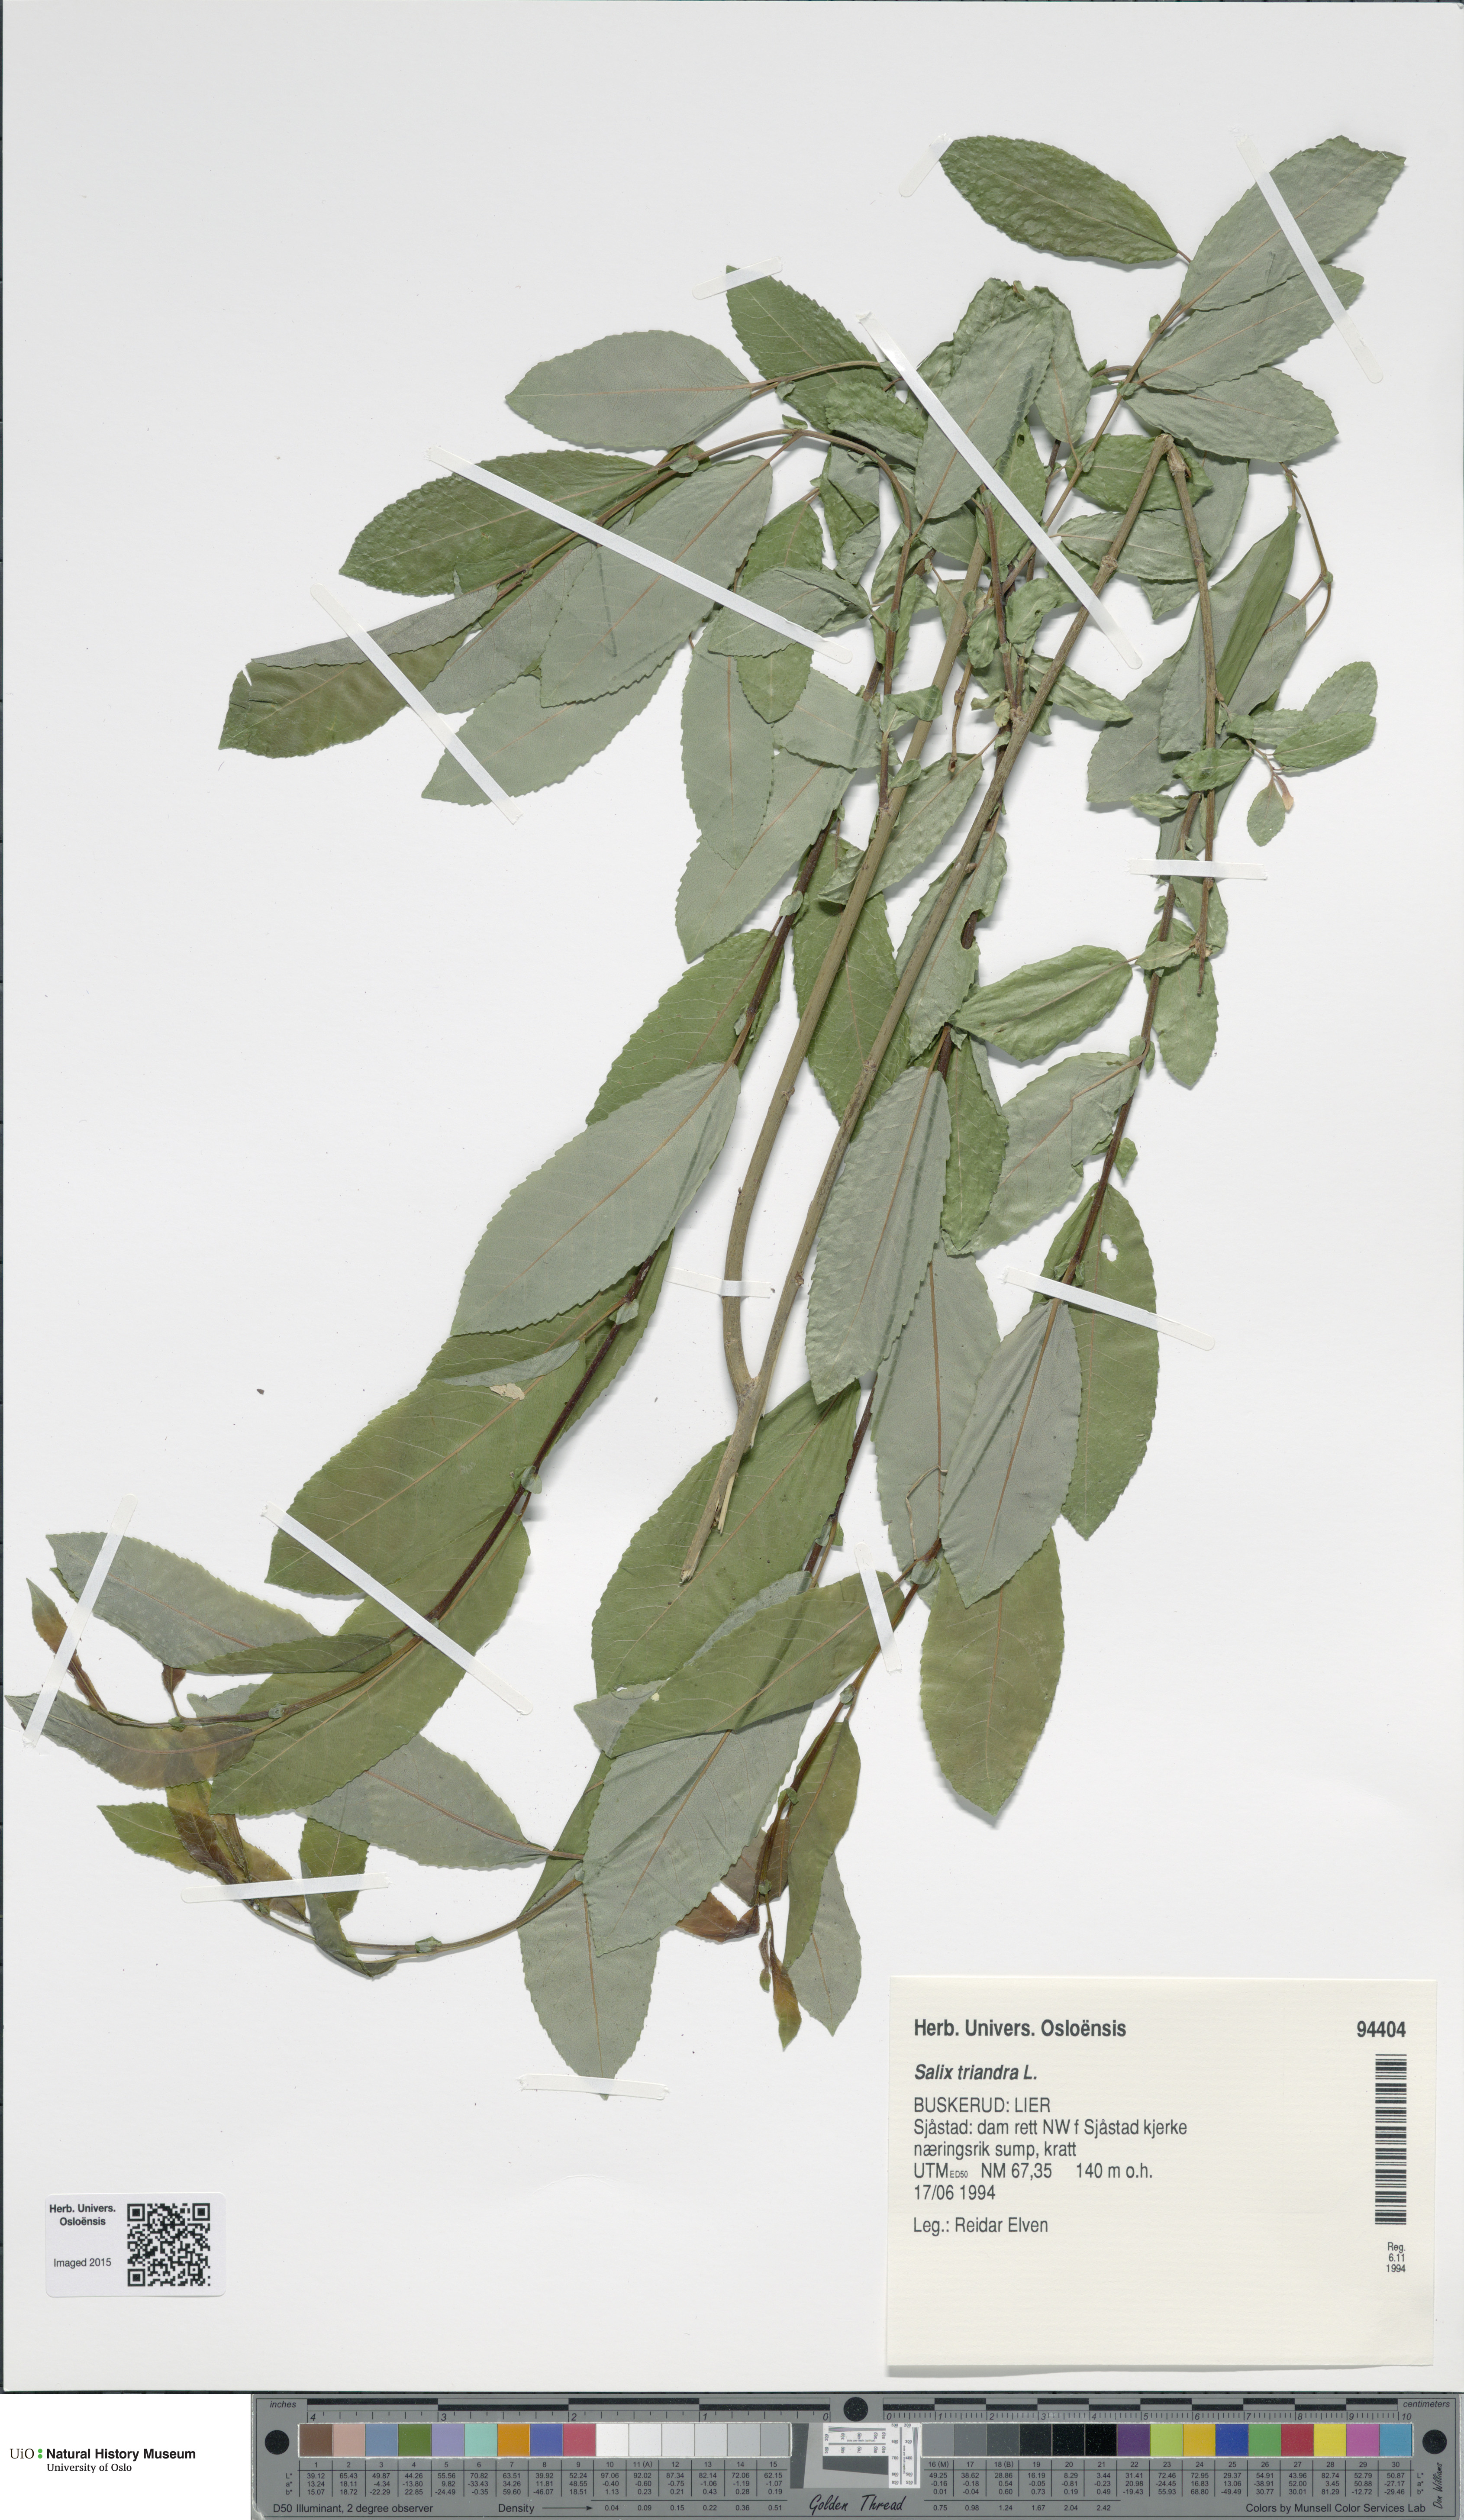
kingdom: Plantae
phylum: Tracheophyta
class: Magnoliopsida
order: Malpighiales
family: Salicaceae
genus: Salix
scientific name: Salix triandra
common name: Almond willow
